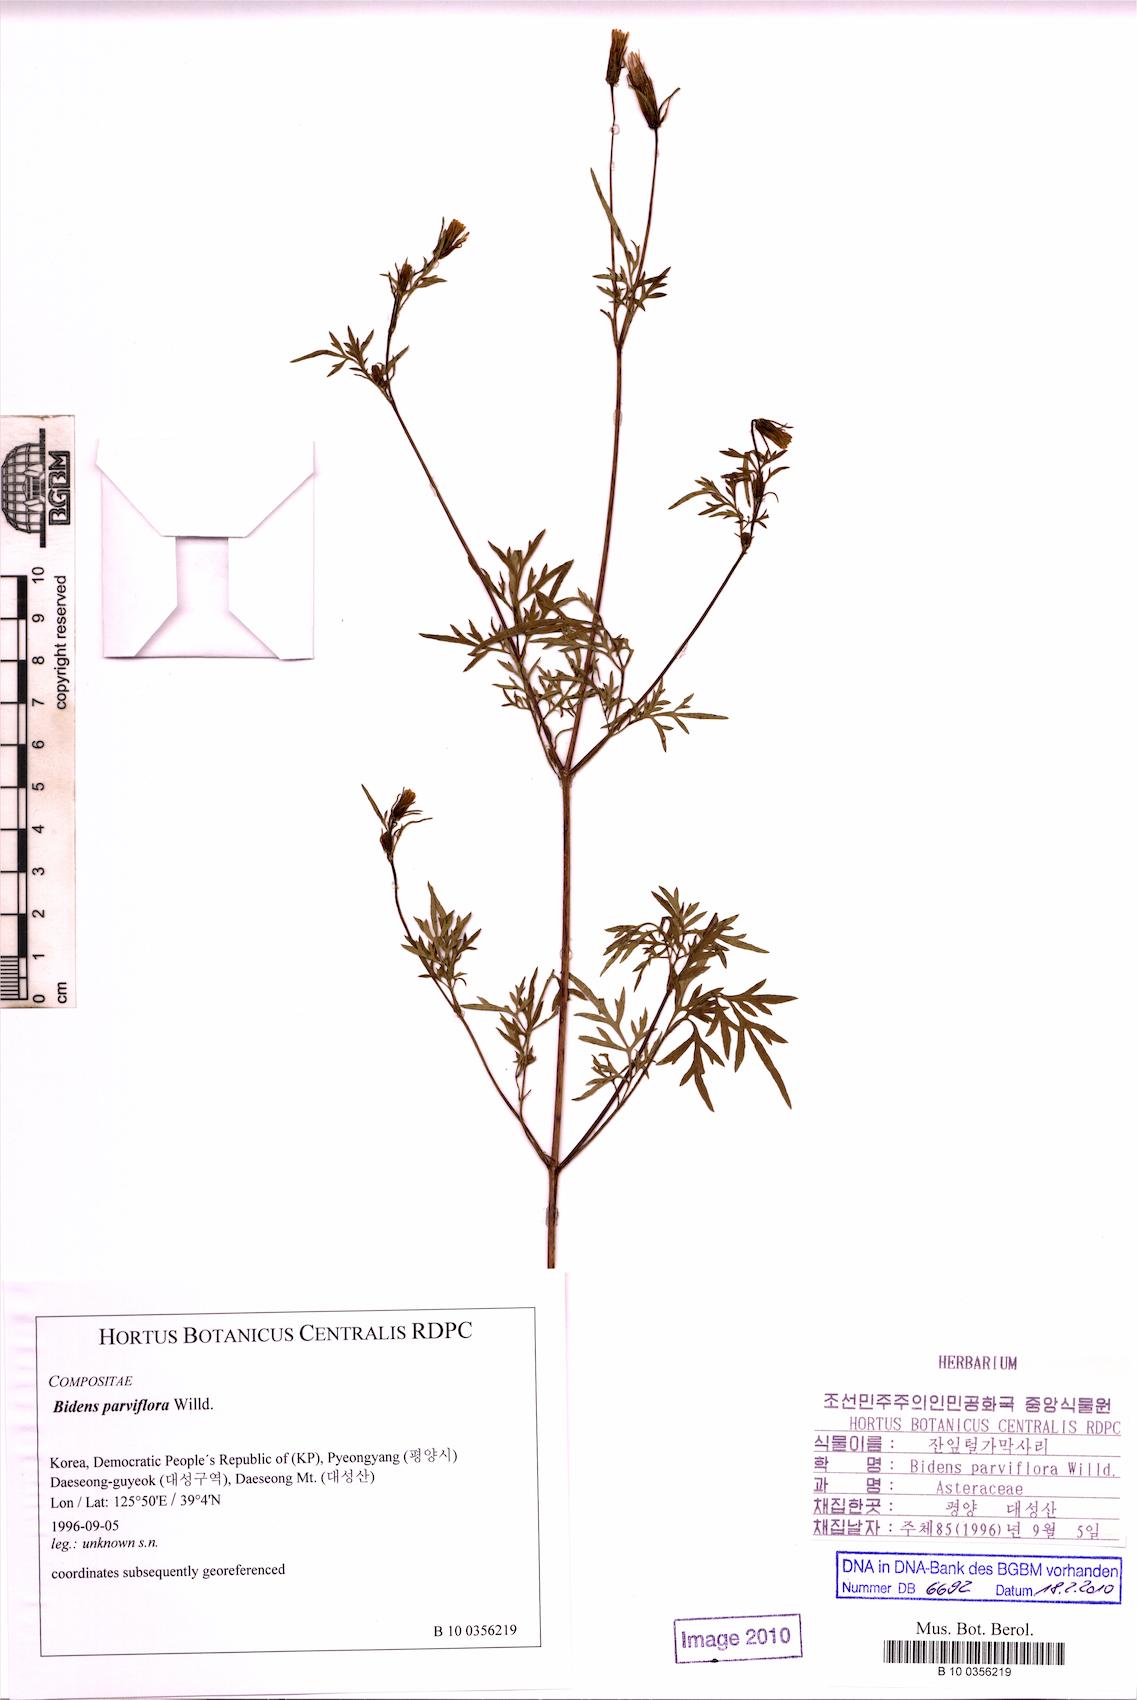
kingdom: Plantae
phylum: Tracheophyta
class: Magnoliopsida
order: Asterales
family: Asteraceae
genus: Bidens
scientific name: Bidens parviflora
